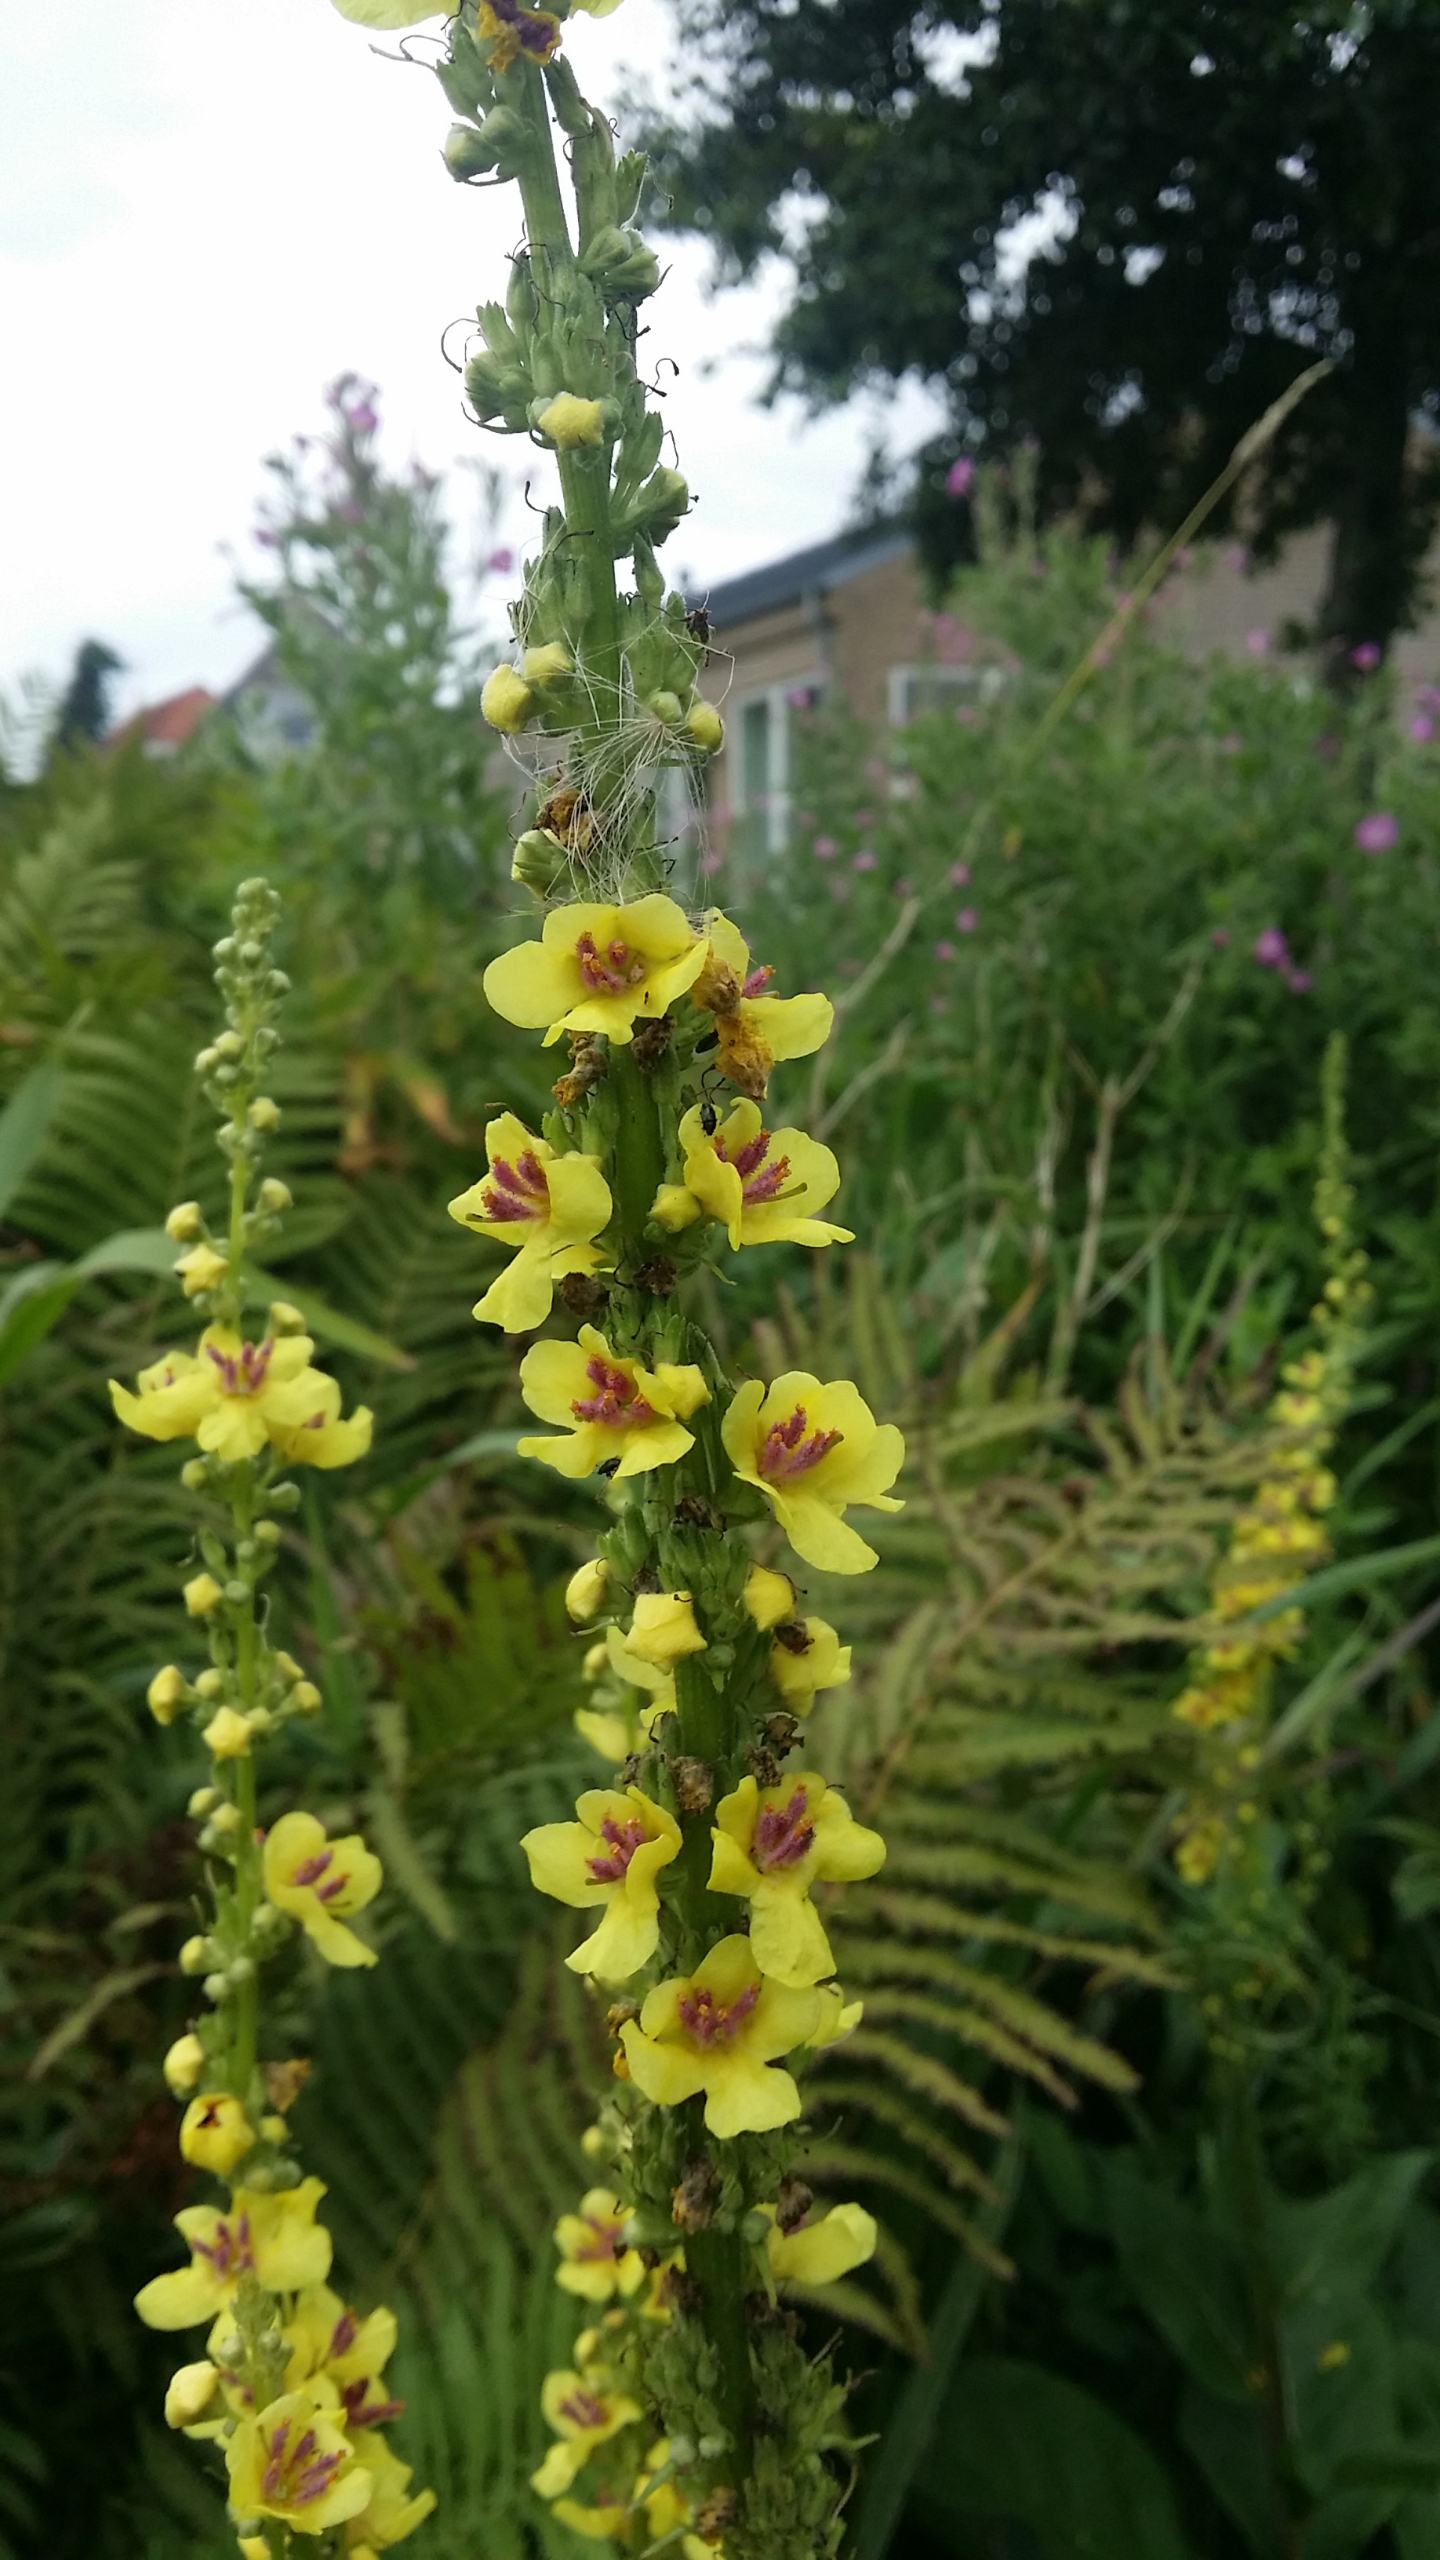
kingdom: Plantae
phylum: Tracheophyta
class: Magnoliopsida
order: Lamiales
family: Scrophulariaceae
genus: Verbascum
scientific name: Verbascum nigrum
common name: Mørk kongelys
